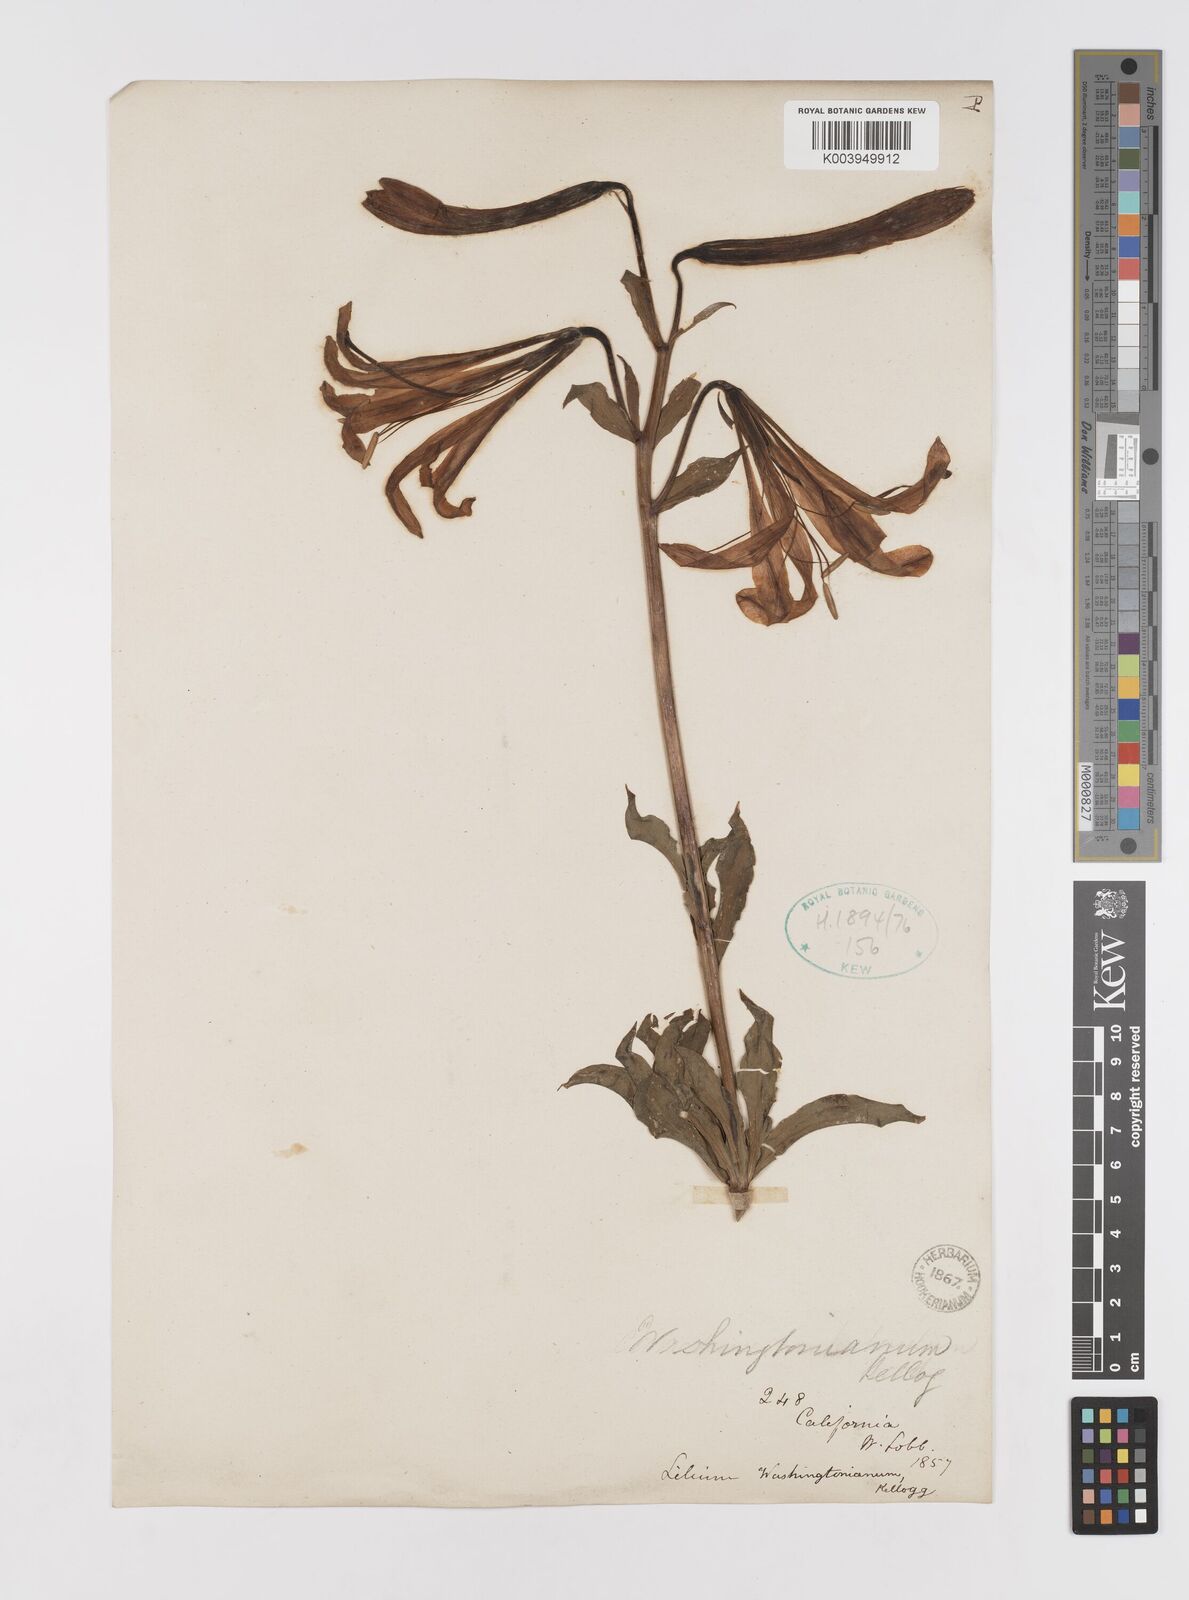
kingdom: Plantae
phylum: Tracheophyta
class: Liliopsida
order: Liliales
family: Liliaceae
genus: Lilium
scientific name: Lilium washingtonianum
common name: Washington lily
